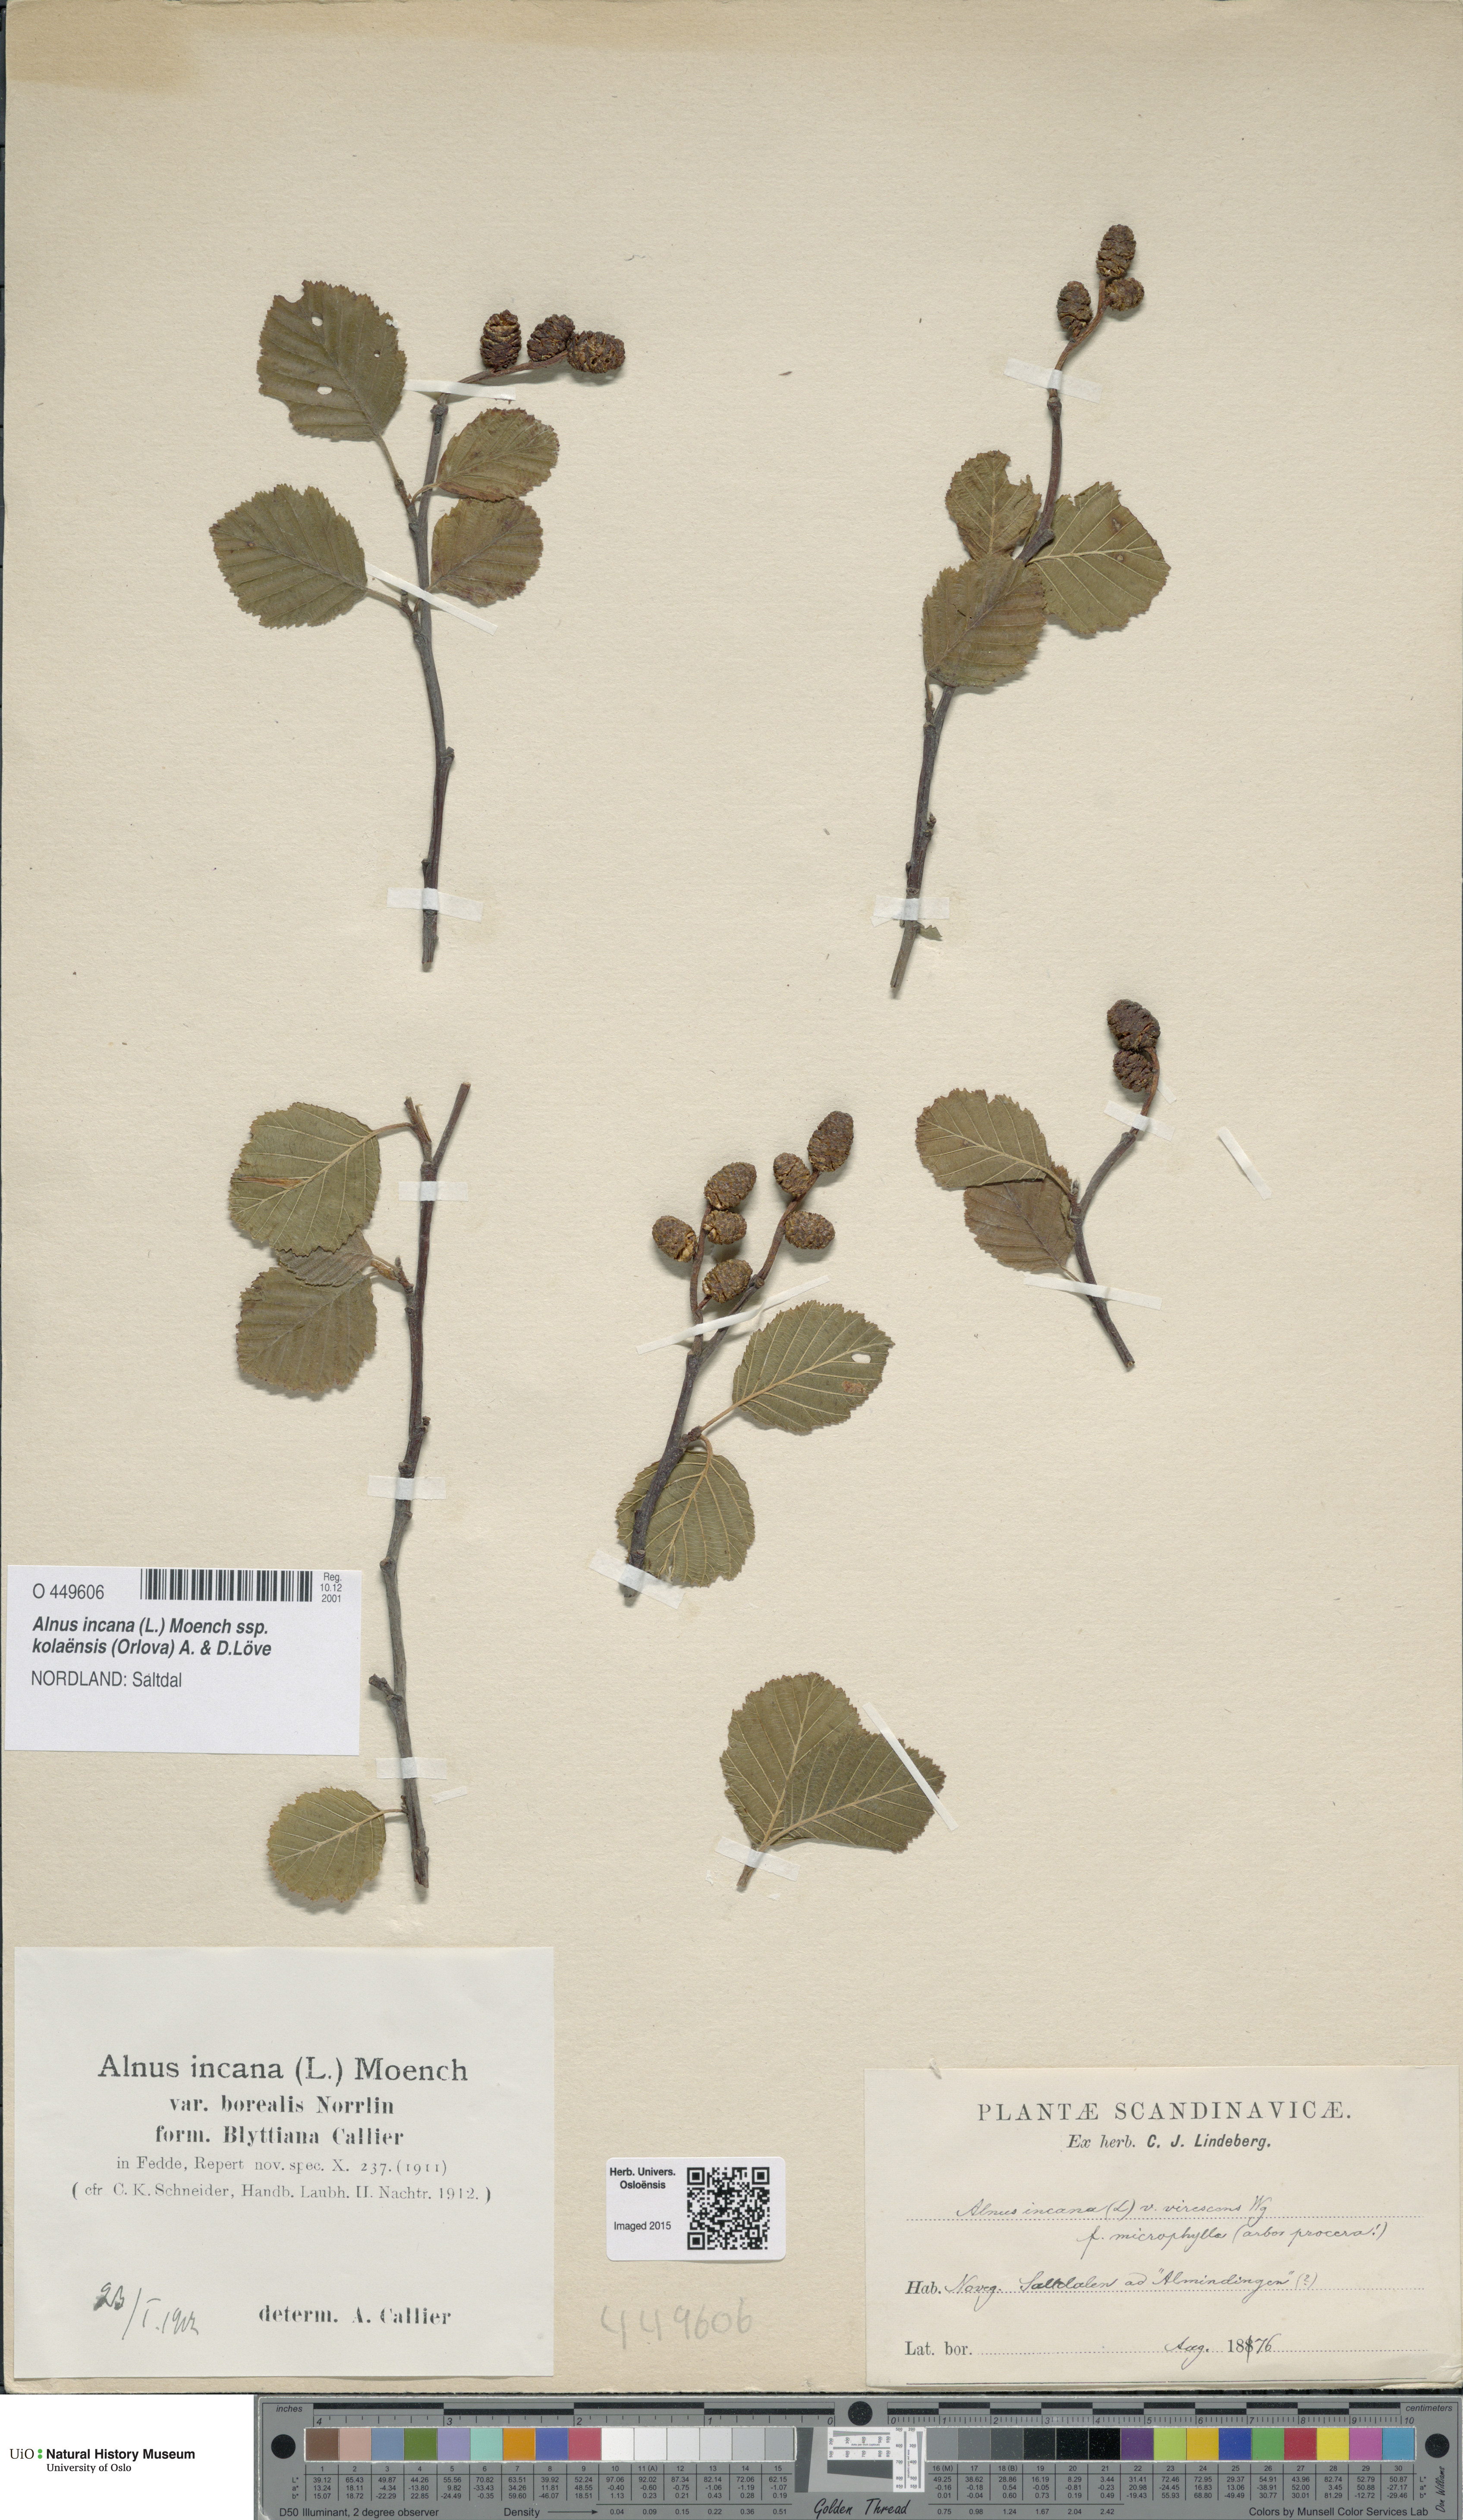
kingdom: Plantae
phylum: Tracheophyta
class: Magnoliopsida
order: Fagales
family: Betulaceae
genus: Alnus
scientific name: Alnus incana
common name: Grey alder
